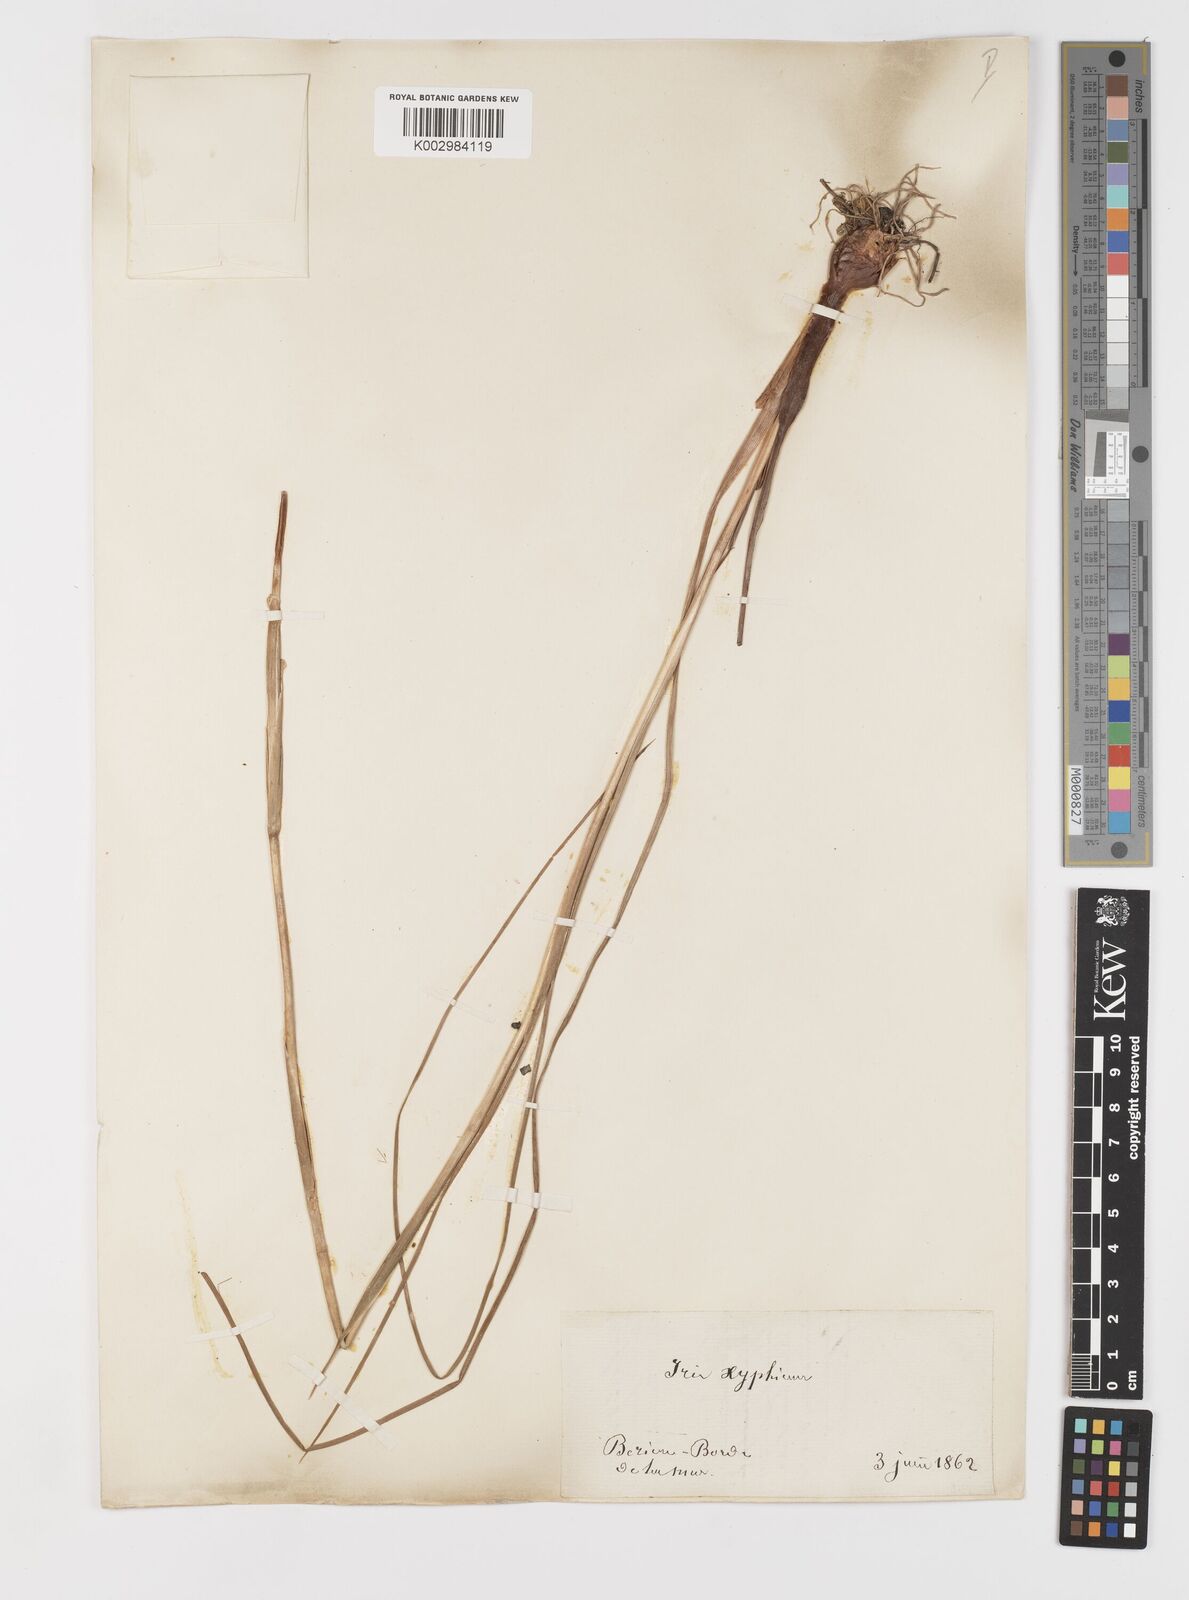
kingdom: Plantae
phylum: Tracheophyta
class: Liliopsida
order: Asparagales
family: Iridaceae
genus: Iris
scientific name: Iris xiphium
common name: Spanish iris
